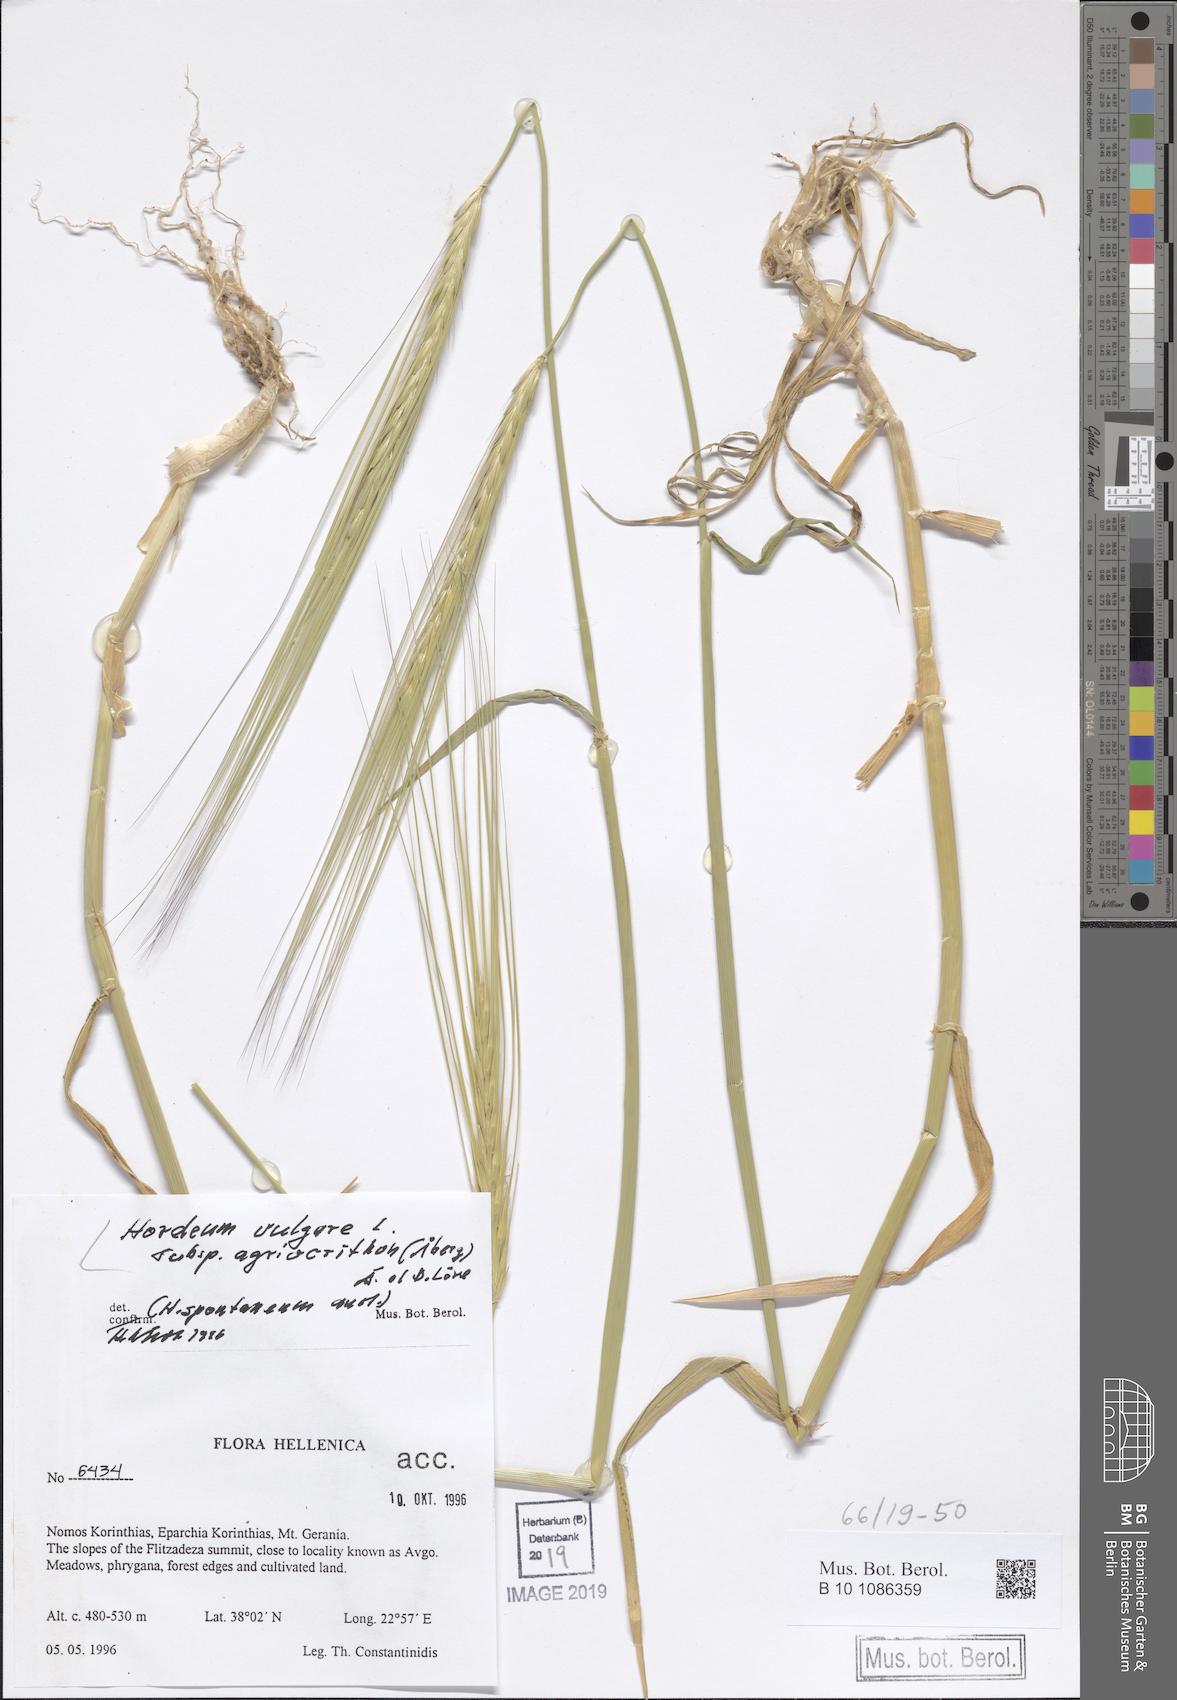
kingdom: Plantae
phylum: Tracheophyta
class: Liliopsida
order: Poales
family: Poaceae
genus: Hordeum
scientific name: Hordeum spontaneum
